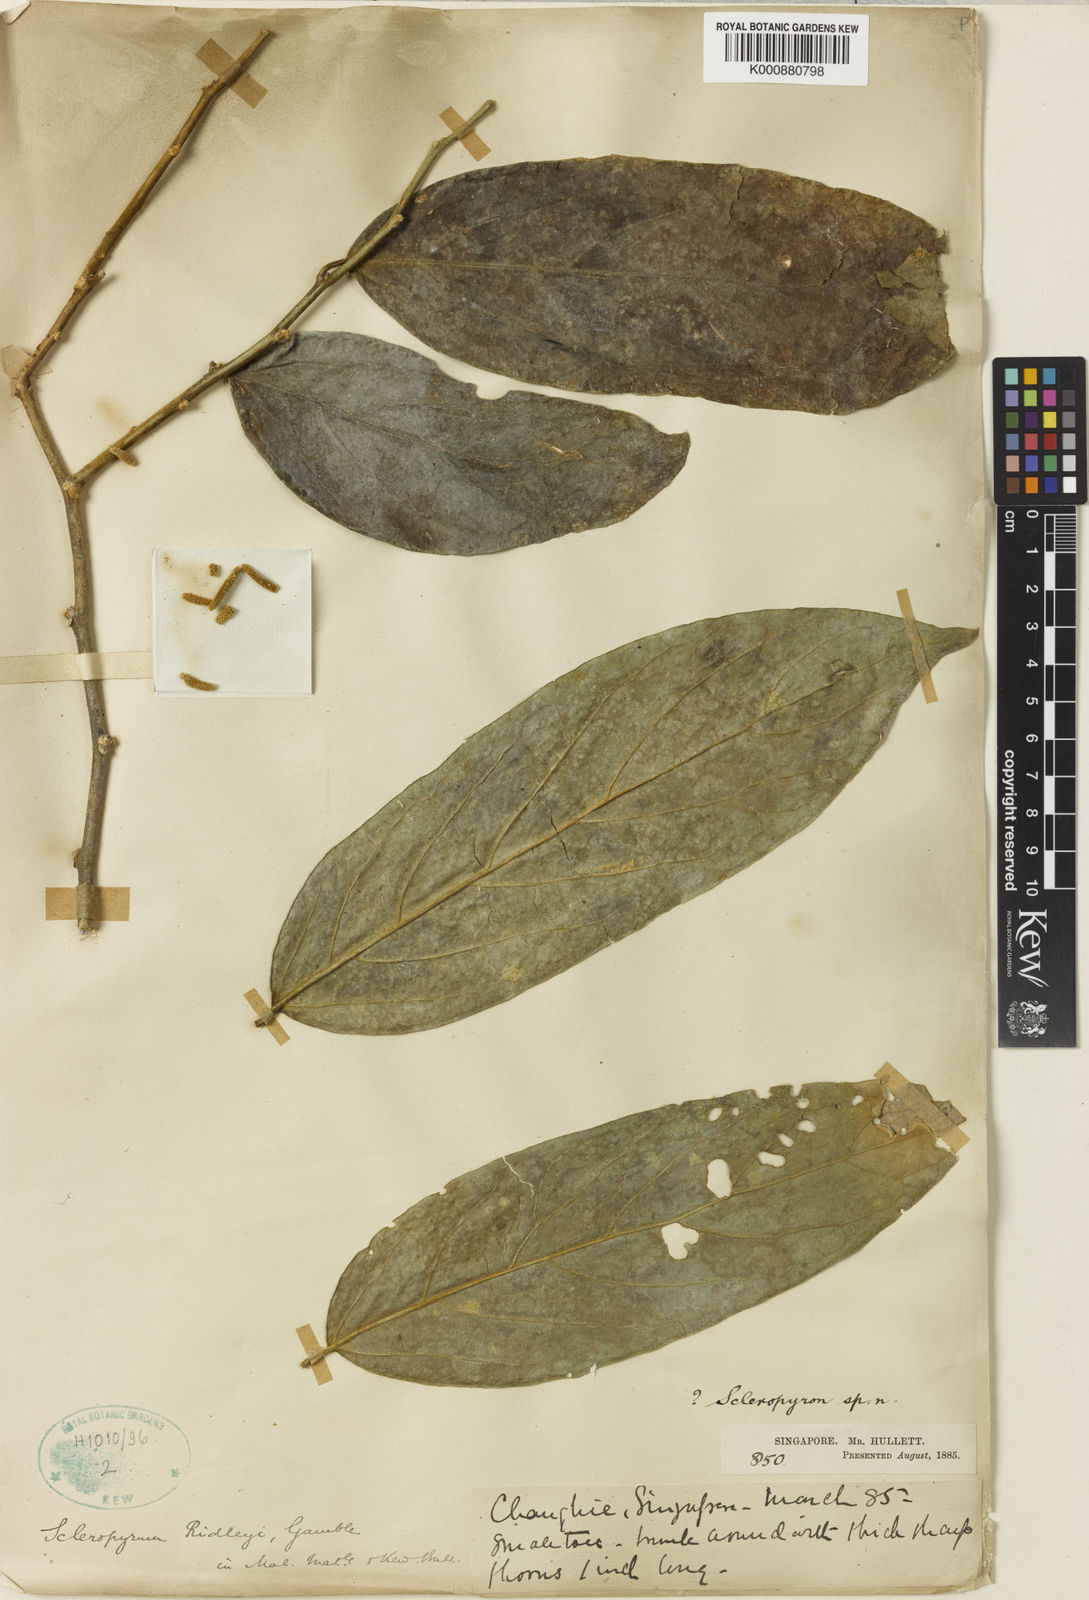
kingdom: Plantae
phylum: Tracheophyta
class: Magnoliopsida
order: Santalales
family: Cervantesiaceae
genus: Scleropyrum
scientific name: Scleropyrum pentandrum
